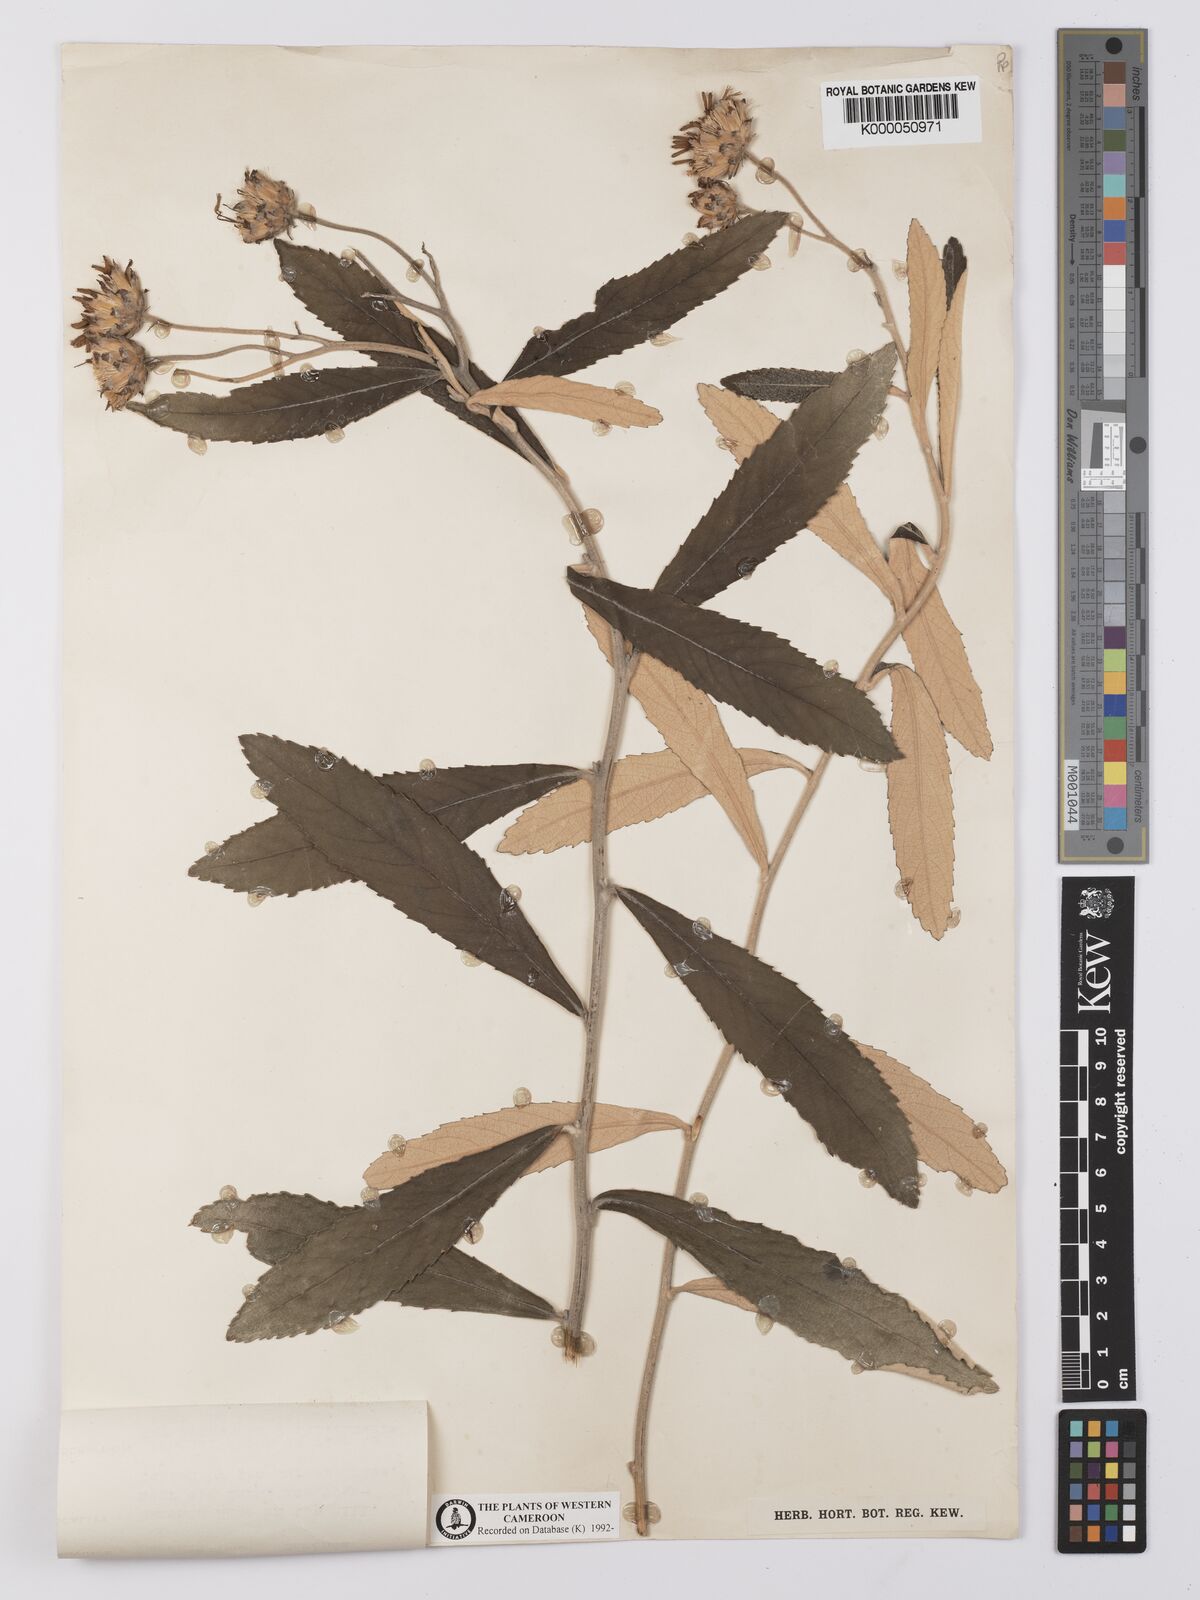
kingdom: Plantae
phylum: Tracheophyta
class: Magnoliopsida
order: Asterales
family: Asteraceae
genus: Baccharoides
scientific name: Baccharoides guineensis
